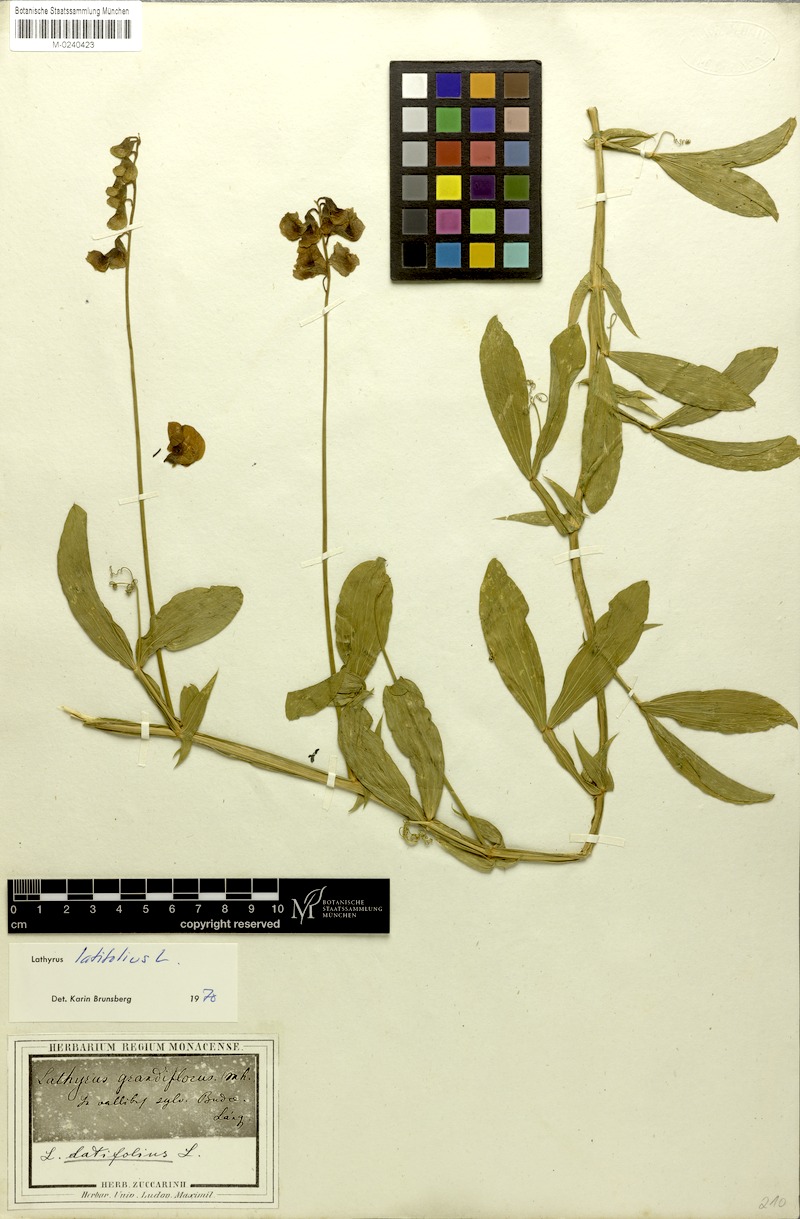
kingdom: Plantae
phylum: Tracheophyta
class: Magnoliopsida
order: Fabales
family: Fabaceae
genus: Lathyrus
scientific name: Lathyrus latifolius
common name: Perennial pea
